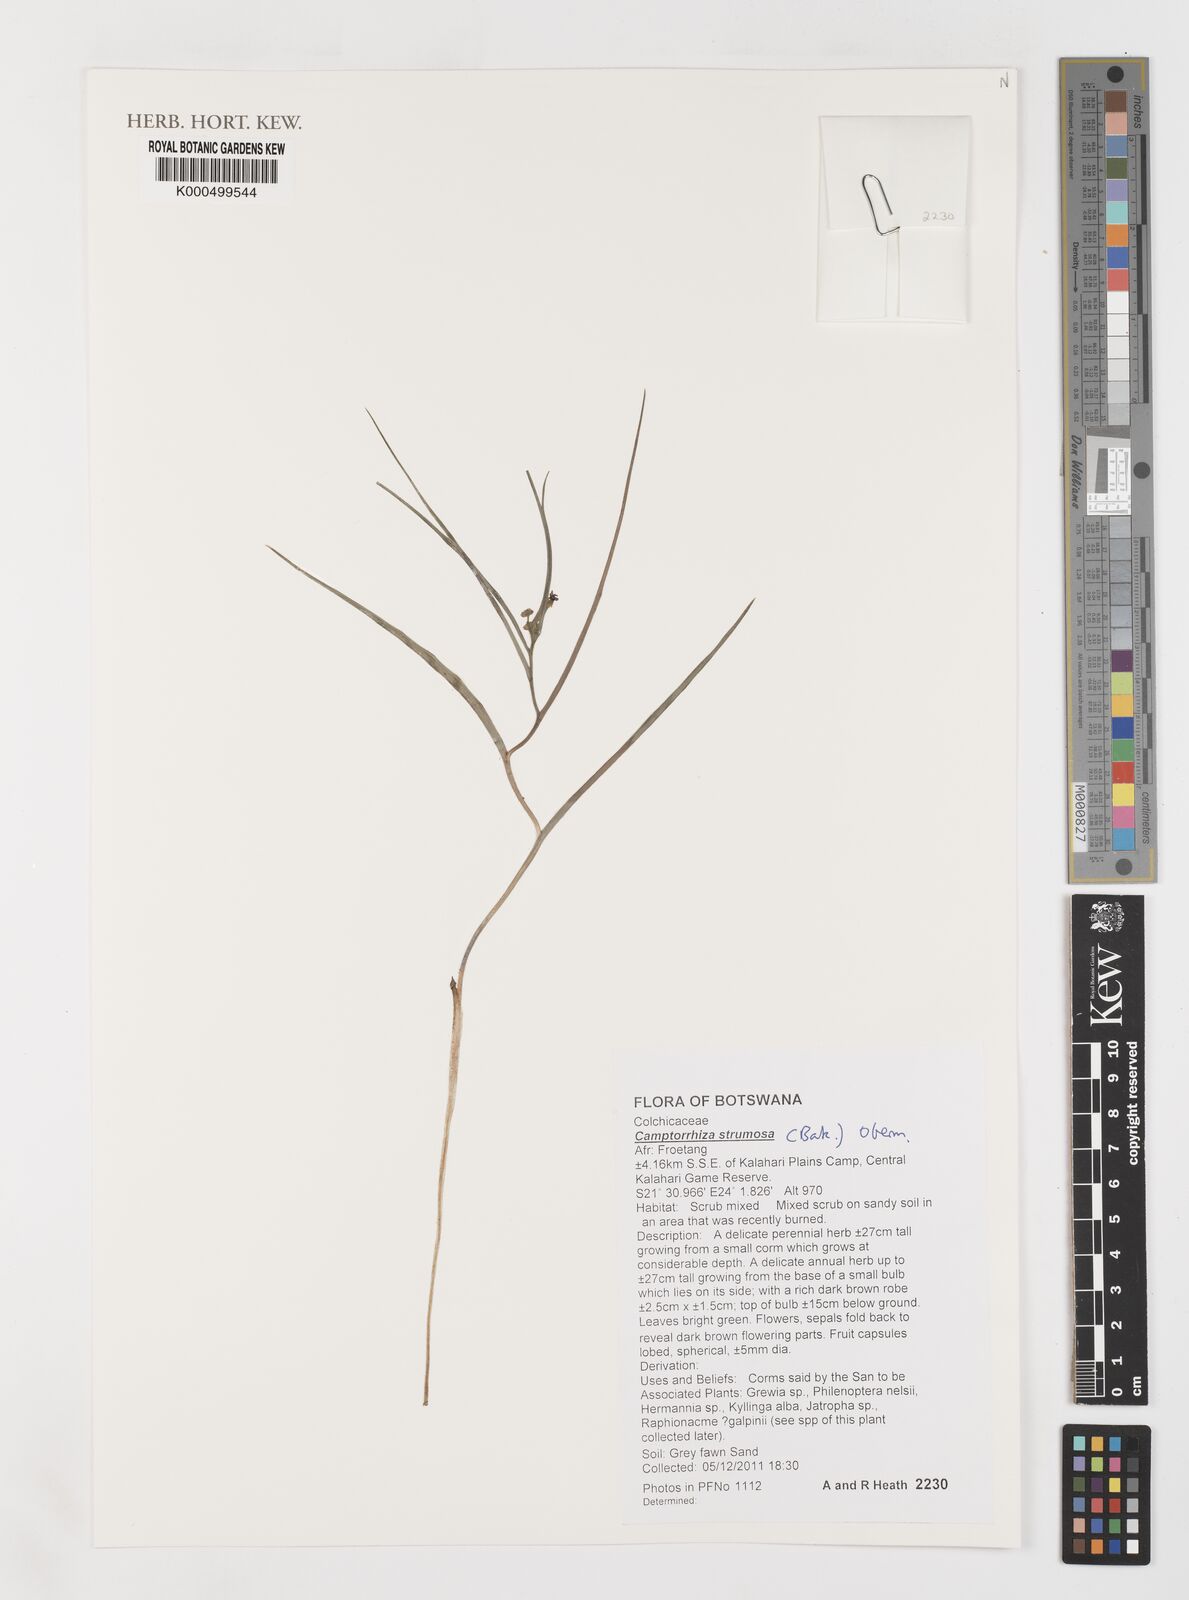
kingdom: Plantae
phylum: Tracheophyta
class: Liliopsida
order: Liliales
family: Colchicaceae
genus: Camptorrhiza
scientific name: Camptorrhiza strumosa
